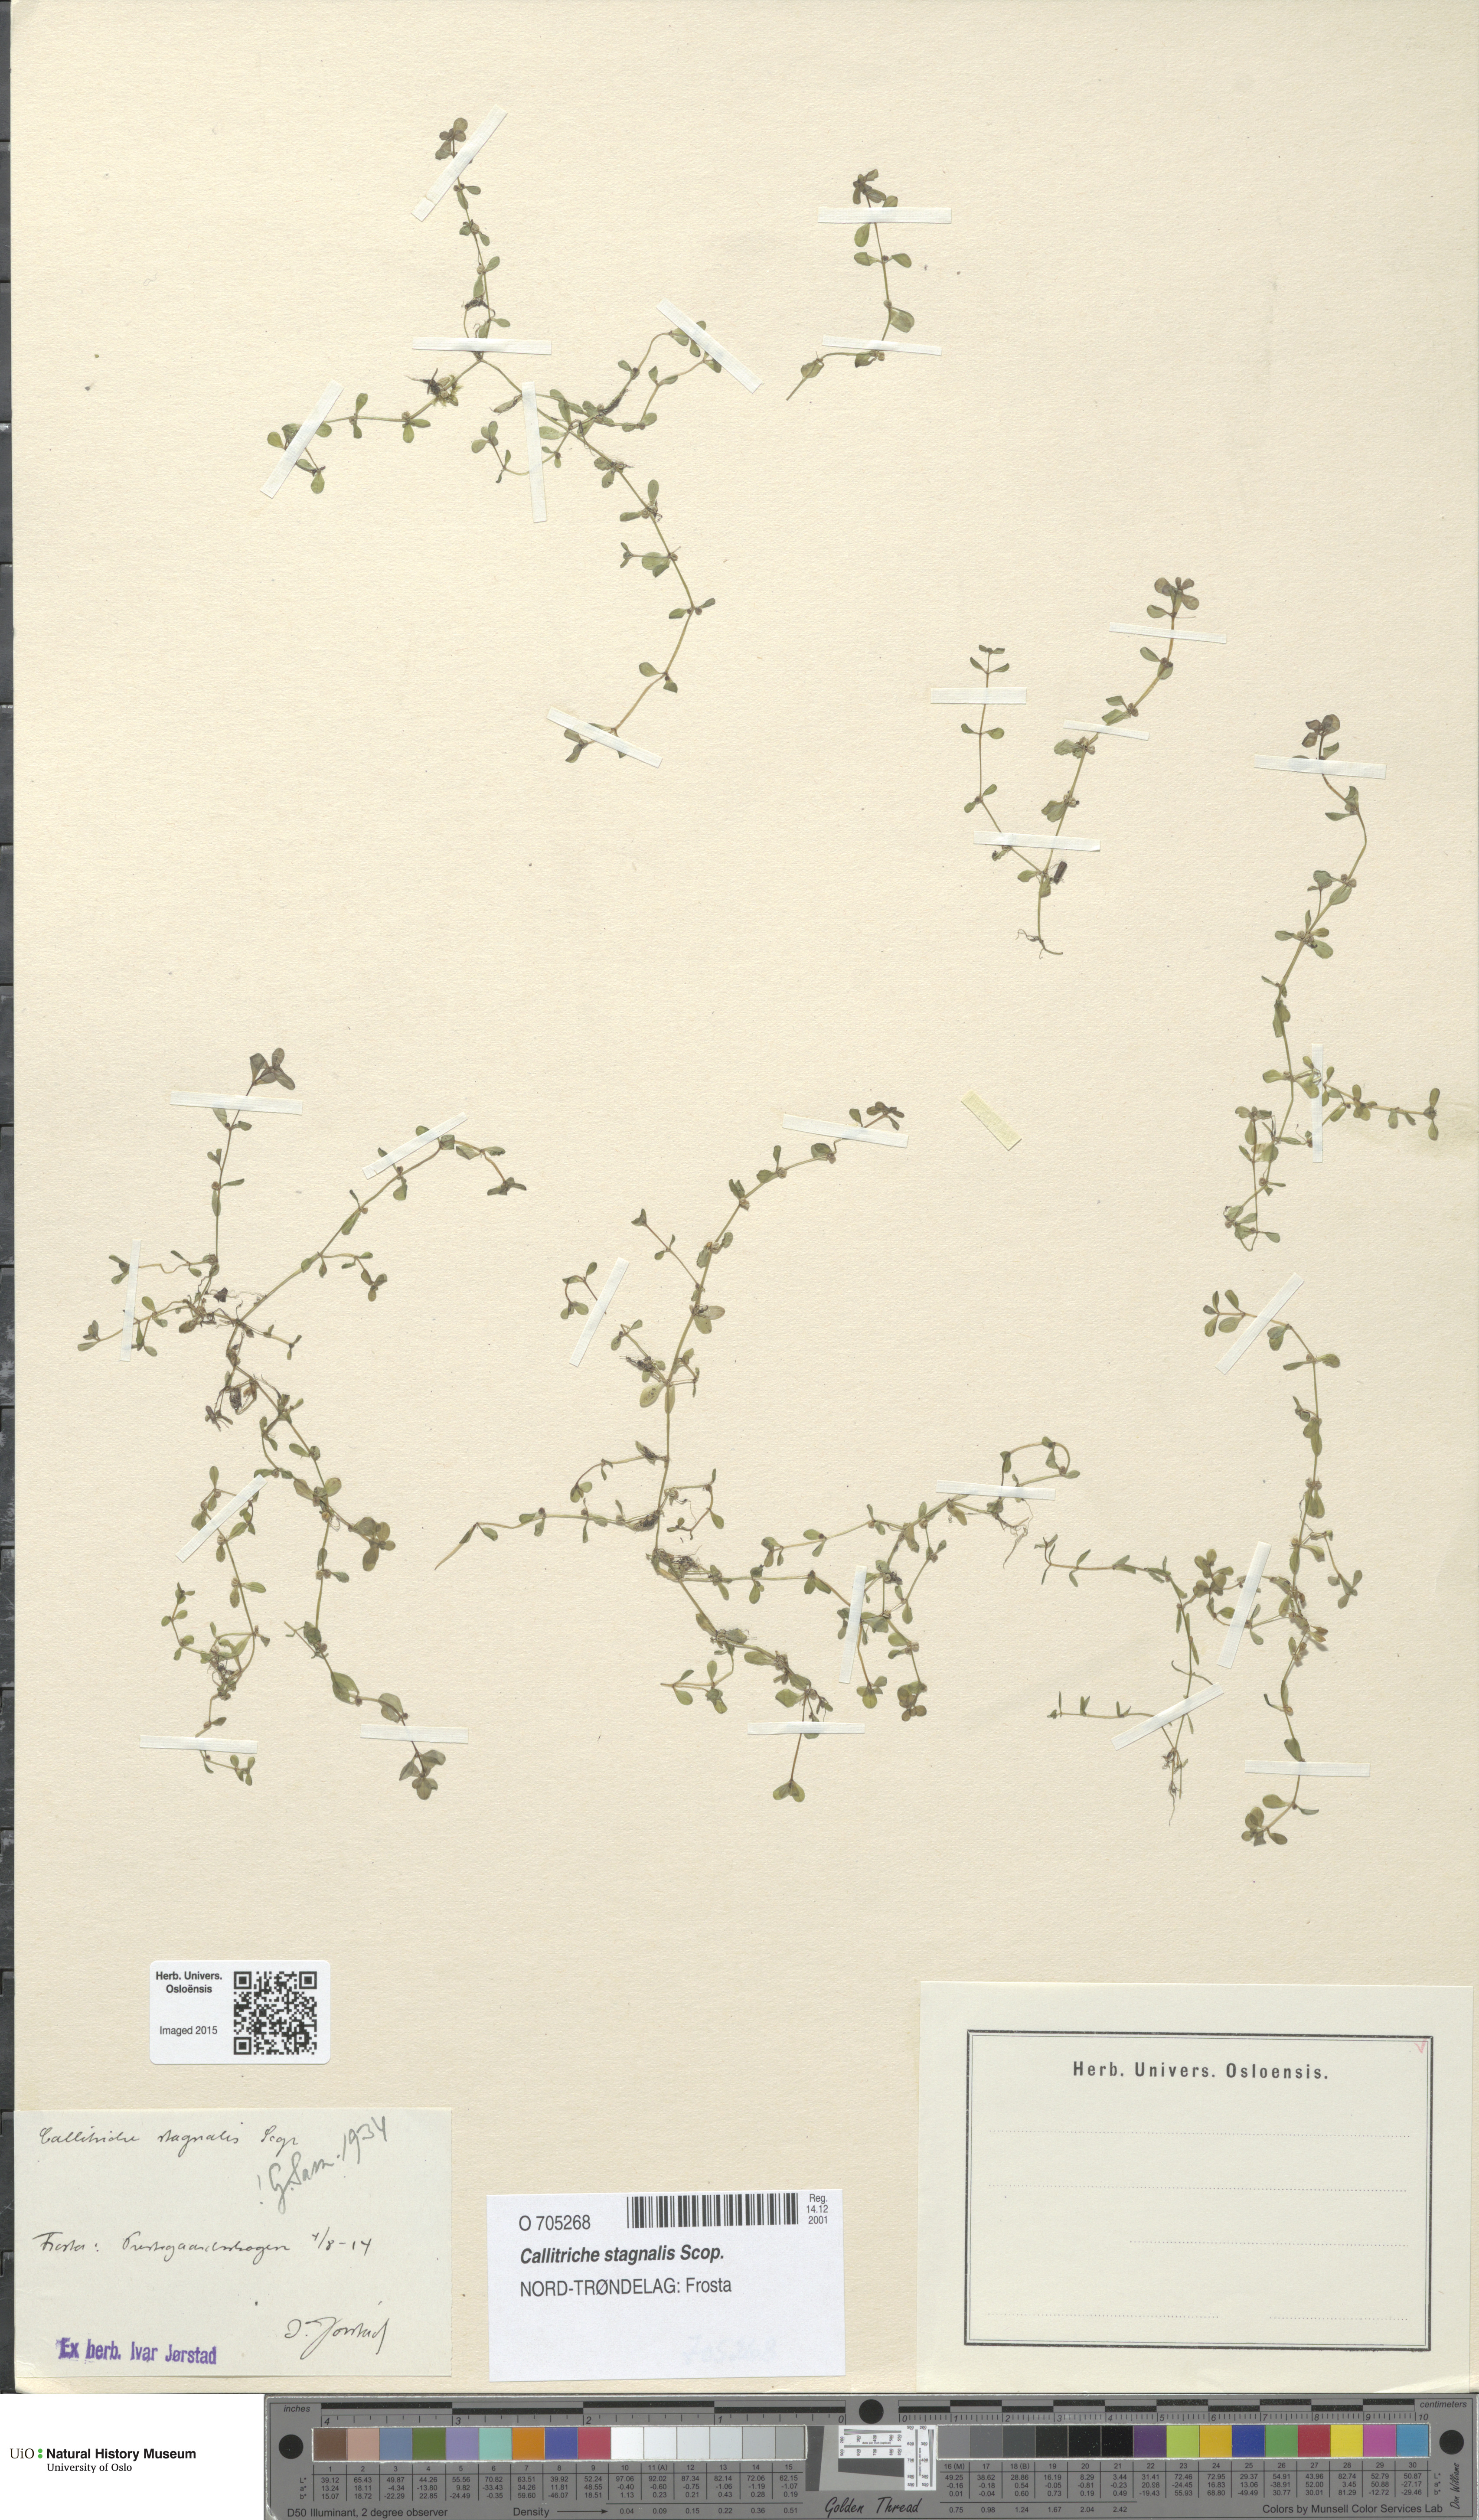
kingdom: Plantae
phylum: Tracheophyta
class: Magnoliopsida
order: Lamiales
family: Plantaginaceae
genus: Callitriche
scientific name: Callitriche stagnalis
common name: Common water-starwort
